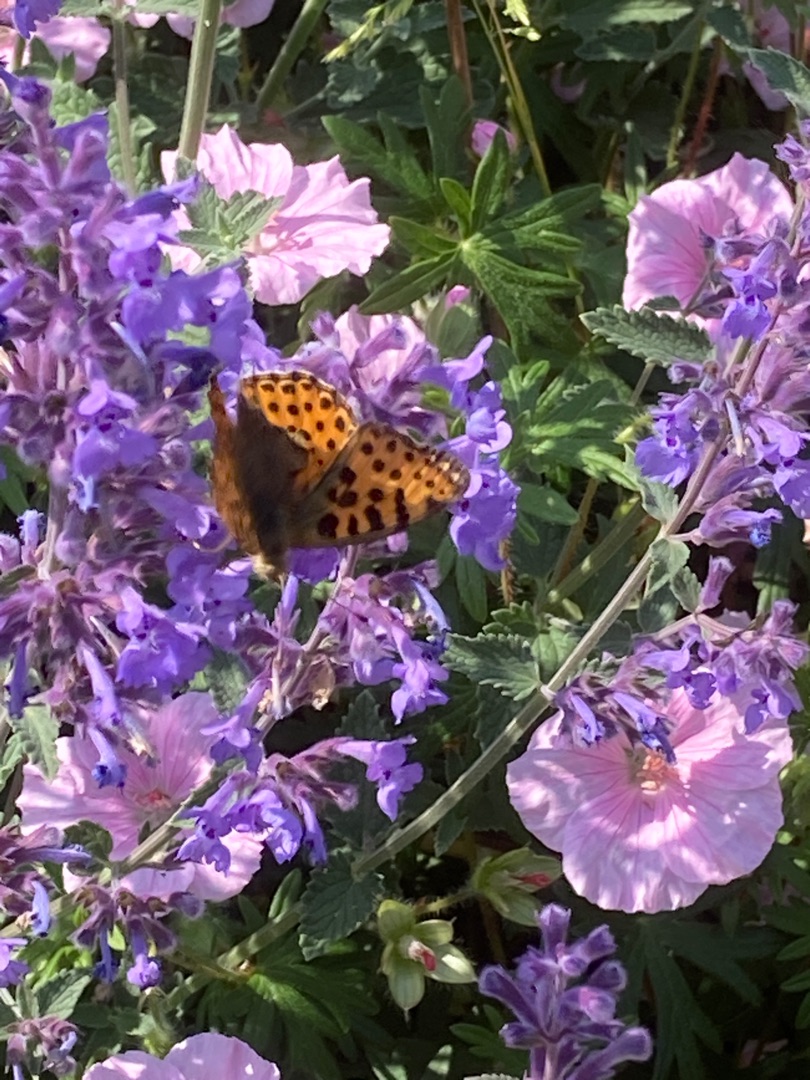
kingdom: Animalia
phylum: Arthropoda
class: Insecta
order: Lepidoptera
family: Nymphalidae
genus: Issoria
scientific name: Issoria lathonia
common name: Storplettet perlemorsommerfugl
